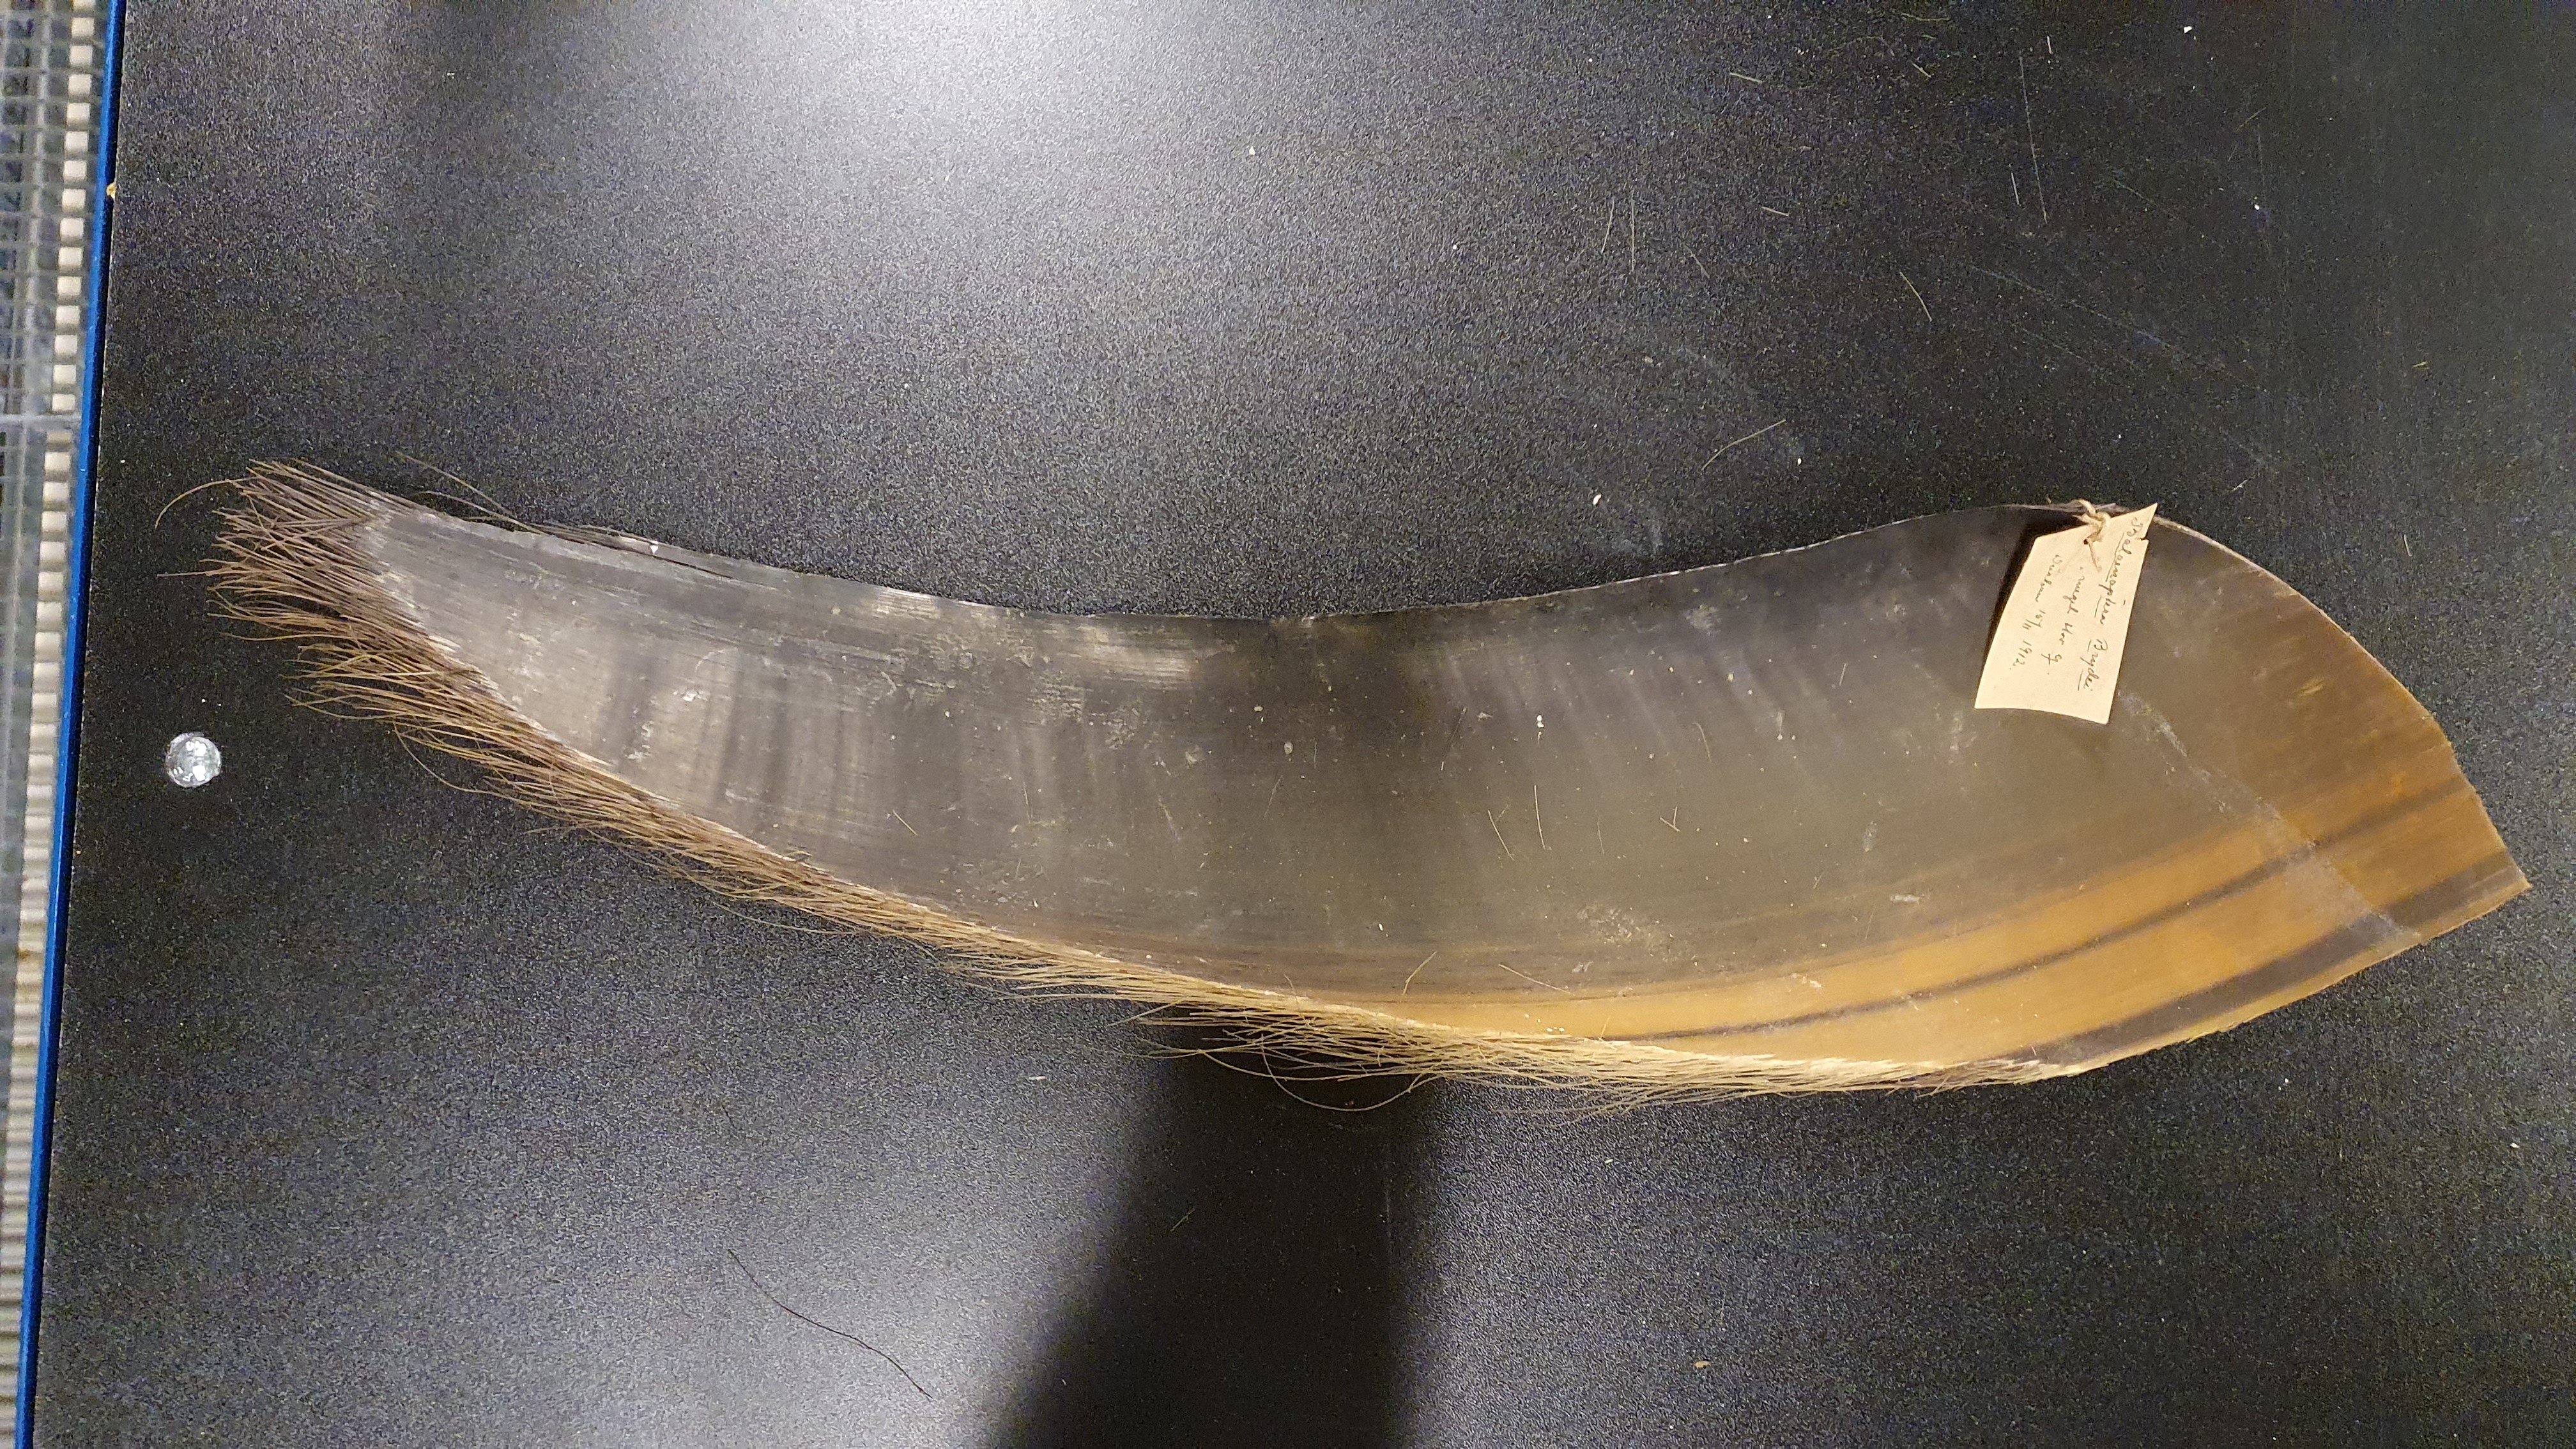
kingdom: Animalia
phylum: Chordata
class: Mammalia
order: Cetacea
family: Balaenopteridae
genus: Balaenoptera
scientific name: Balaenoptera edeni
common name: Bryde's whale
